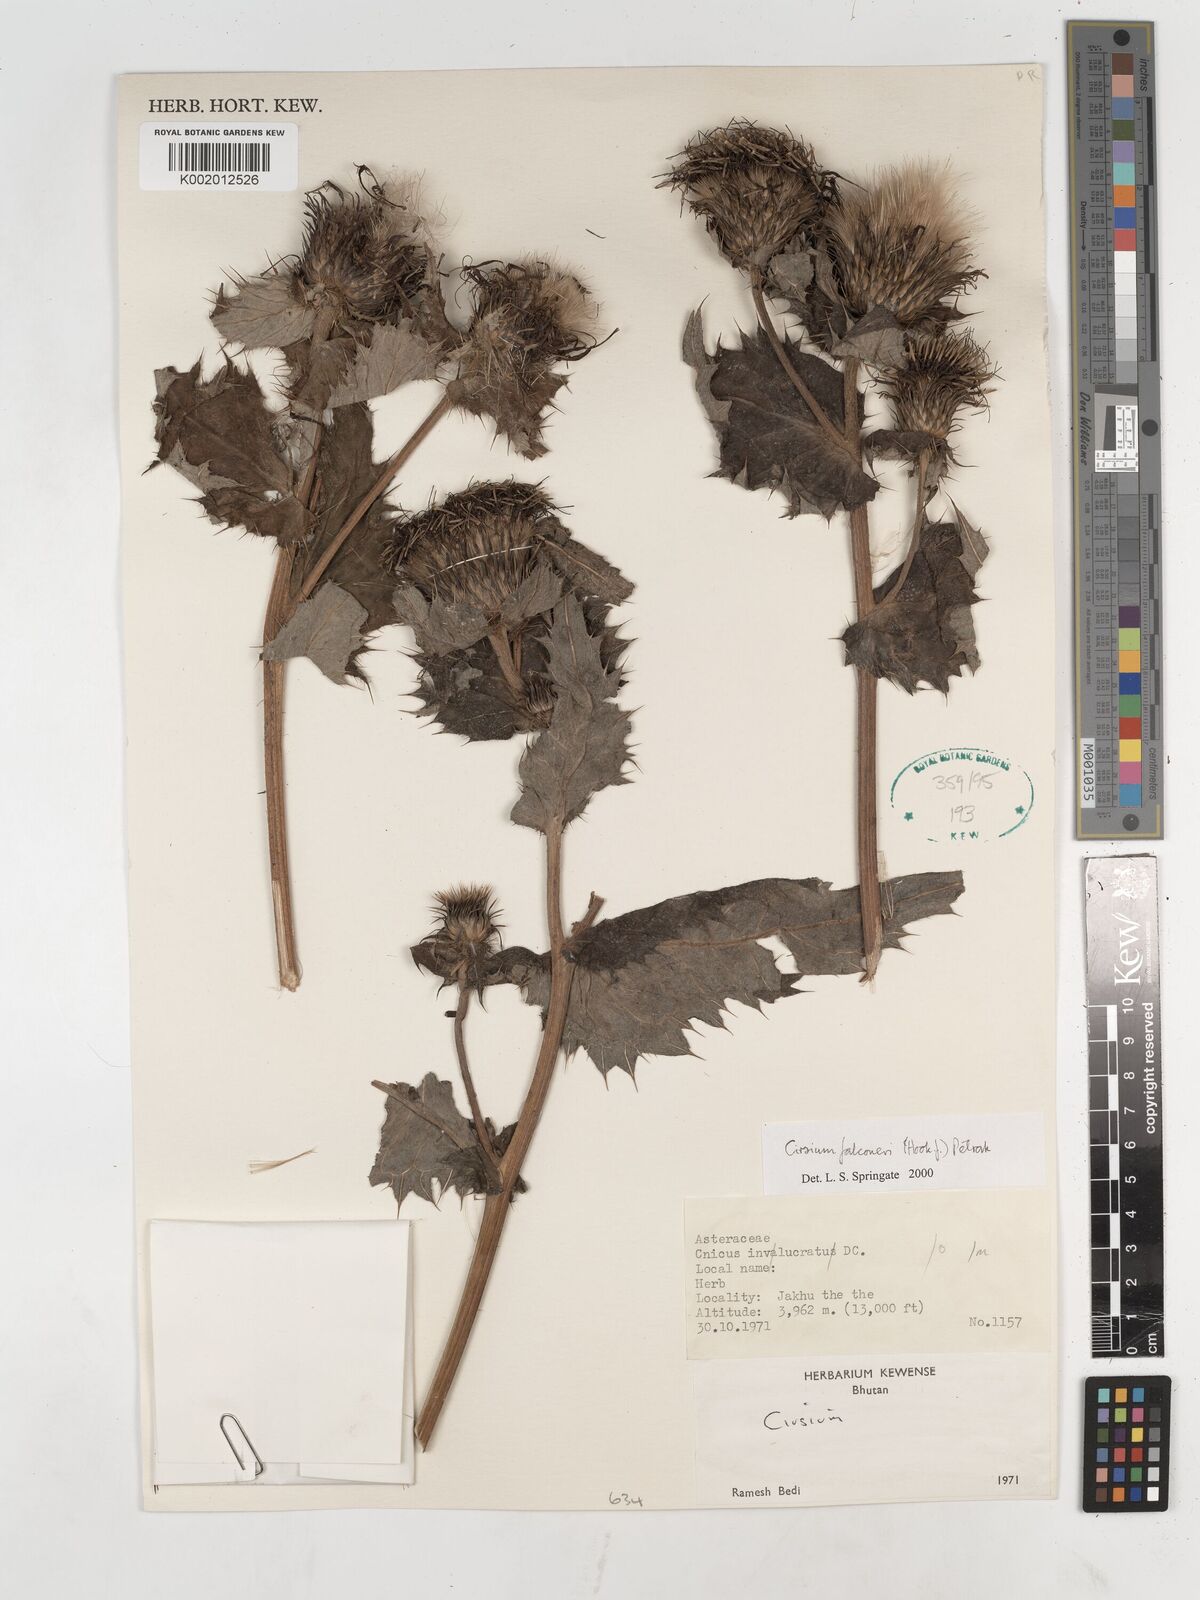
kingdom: Plantae
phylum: Tracheophyta
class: Magnoliopsida
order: Asterales
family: Asteraceae
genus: Cirsium
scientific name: Cirsium falconeri
